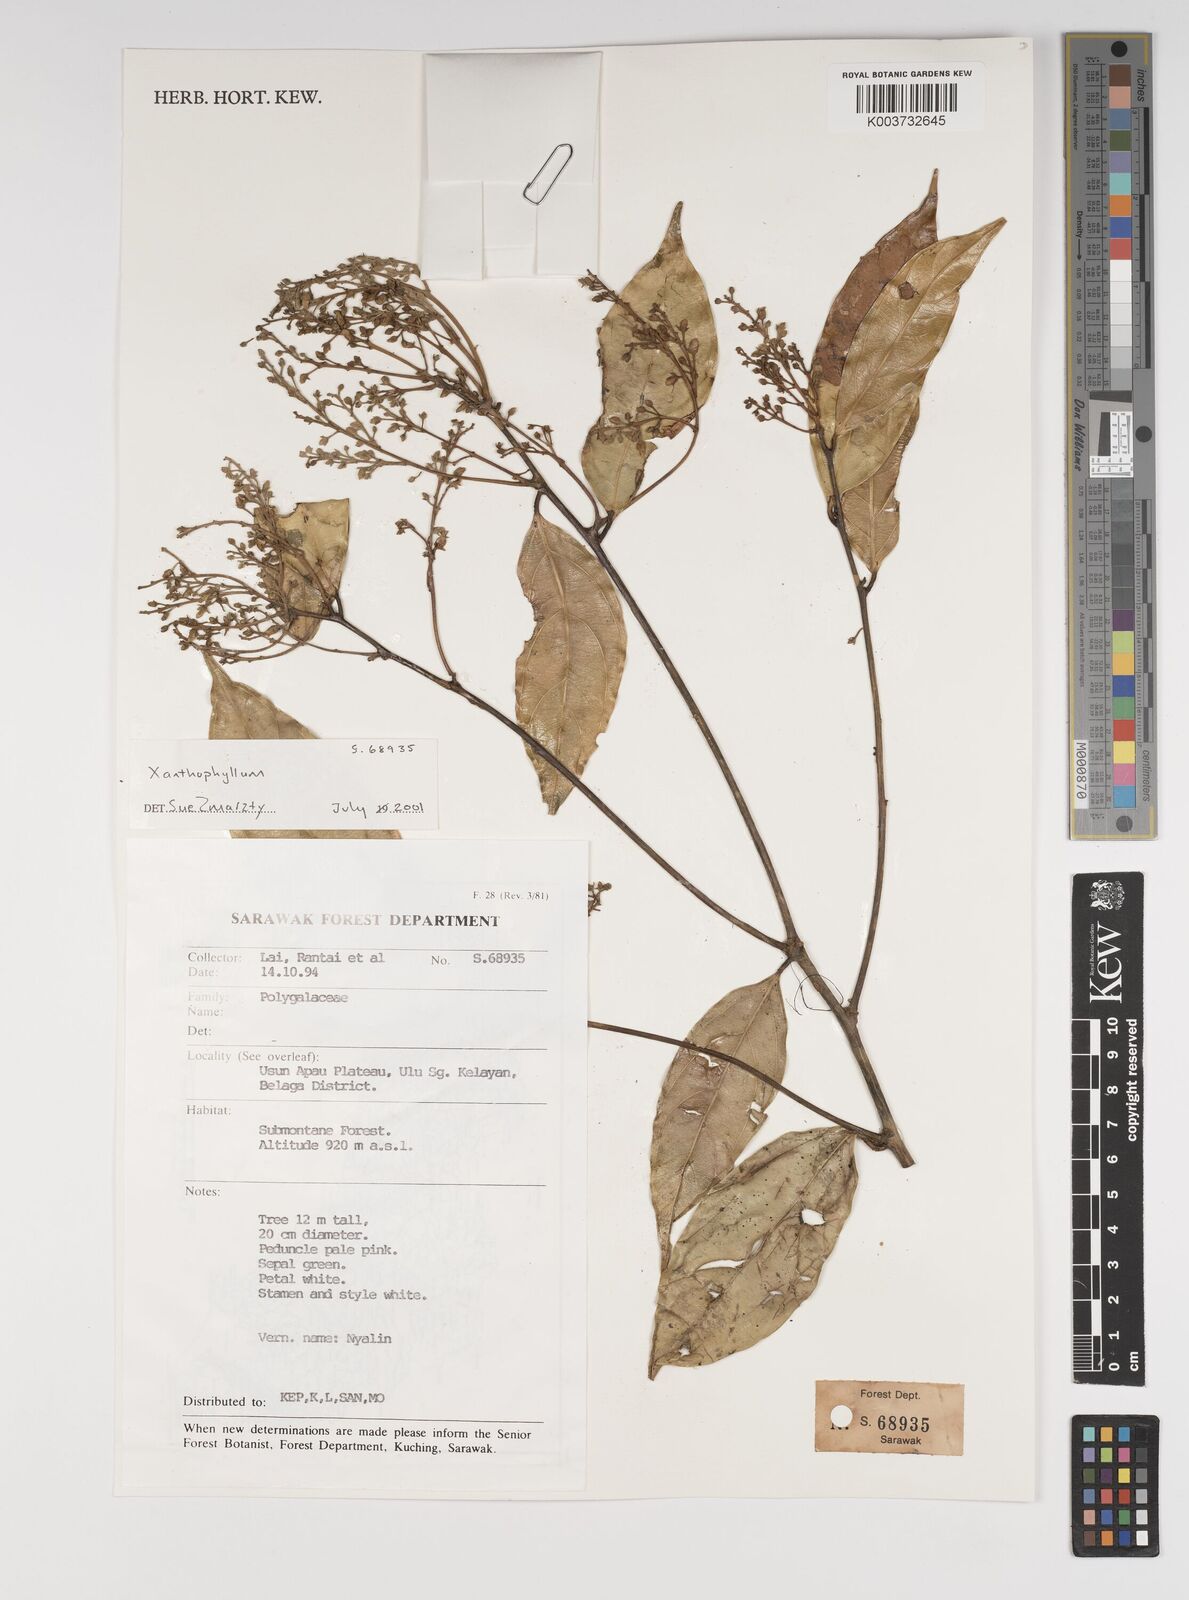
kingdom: Plantae
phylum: Tracheophyta
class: Magnoliopsida
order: Fabales
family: Polygalaceae
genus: Xanthophyllum
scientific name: Xanthophyllum
